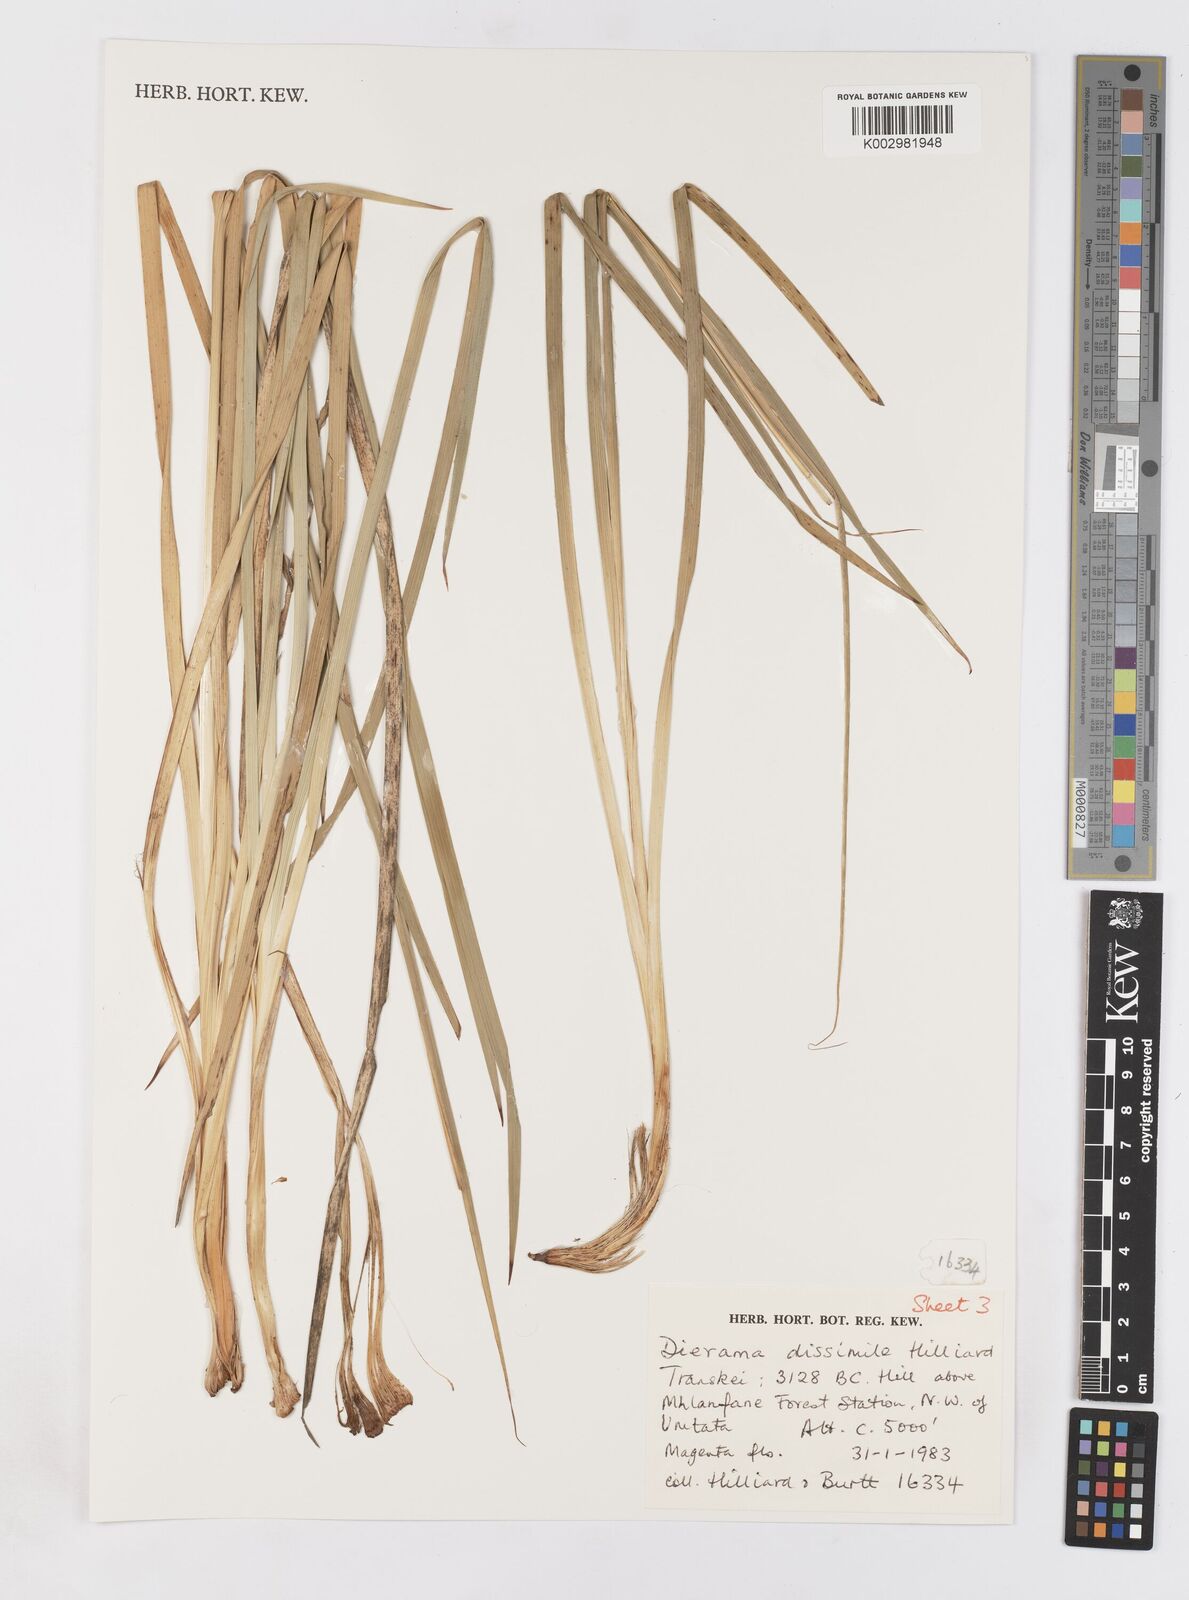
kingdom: Plantae
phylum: Tracheophyta
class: Liliopsida
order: Asparagales
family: Iridaceae
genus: Dierama
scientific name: Dierama dissimile
